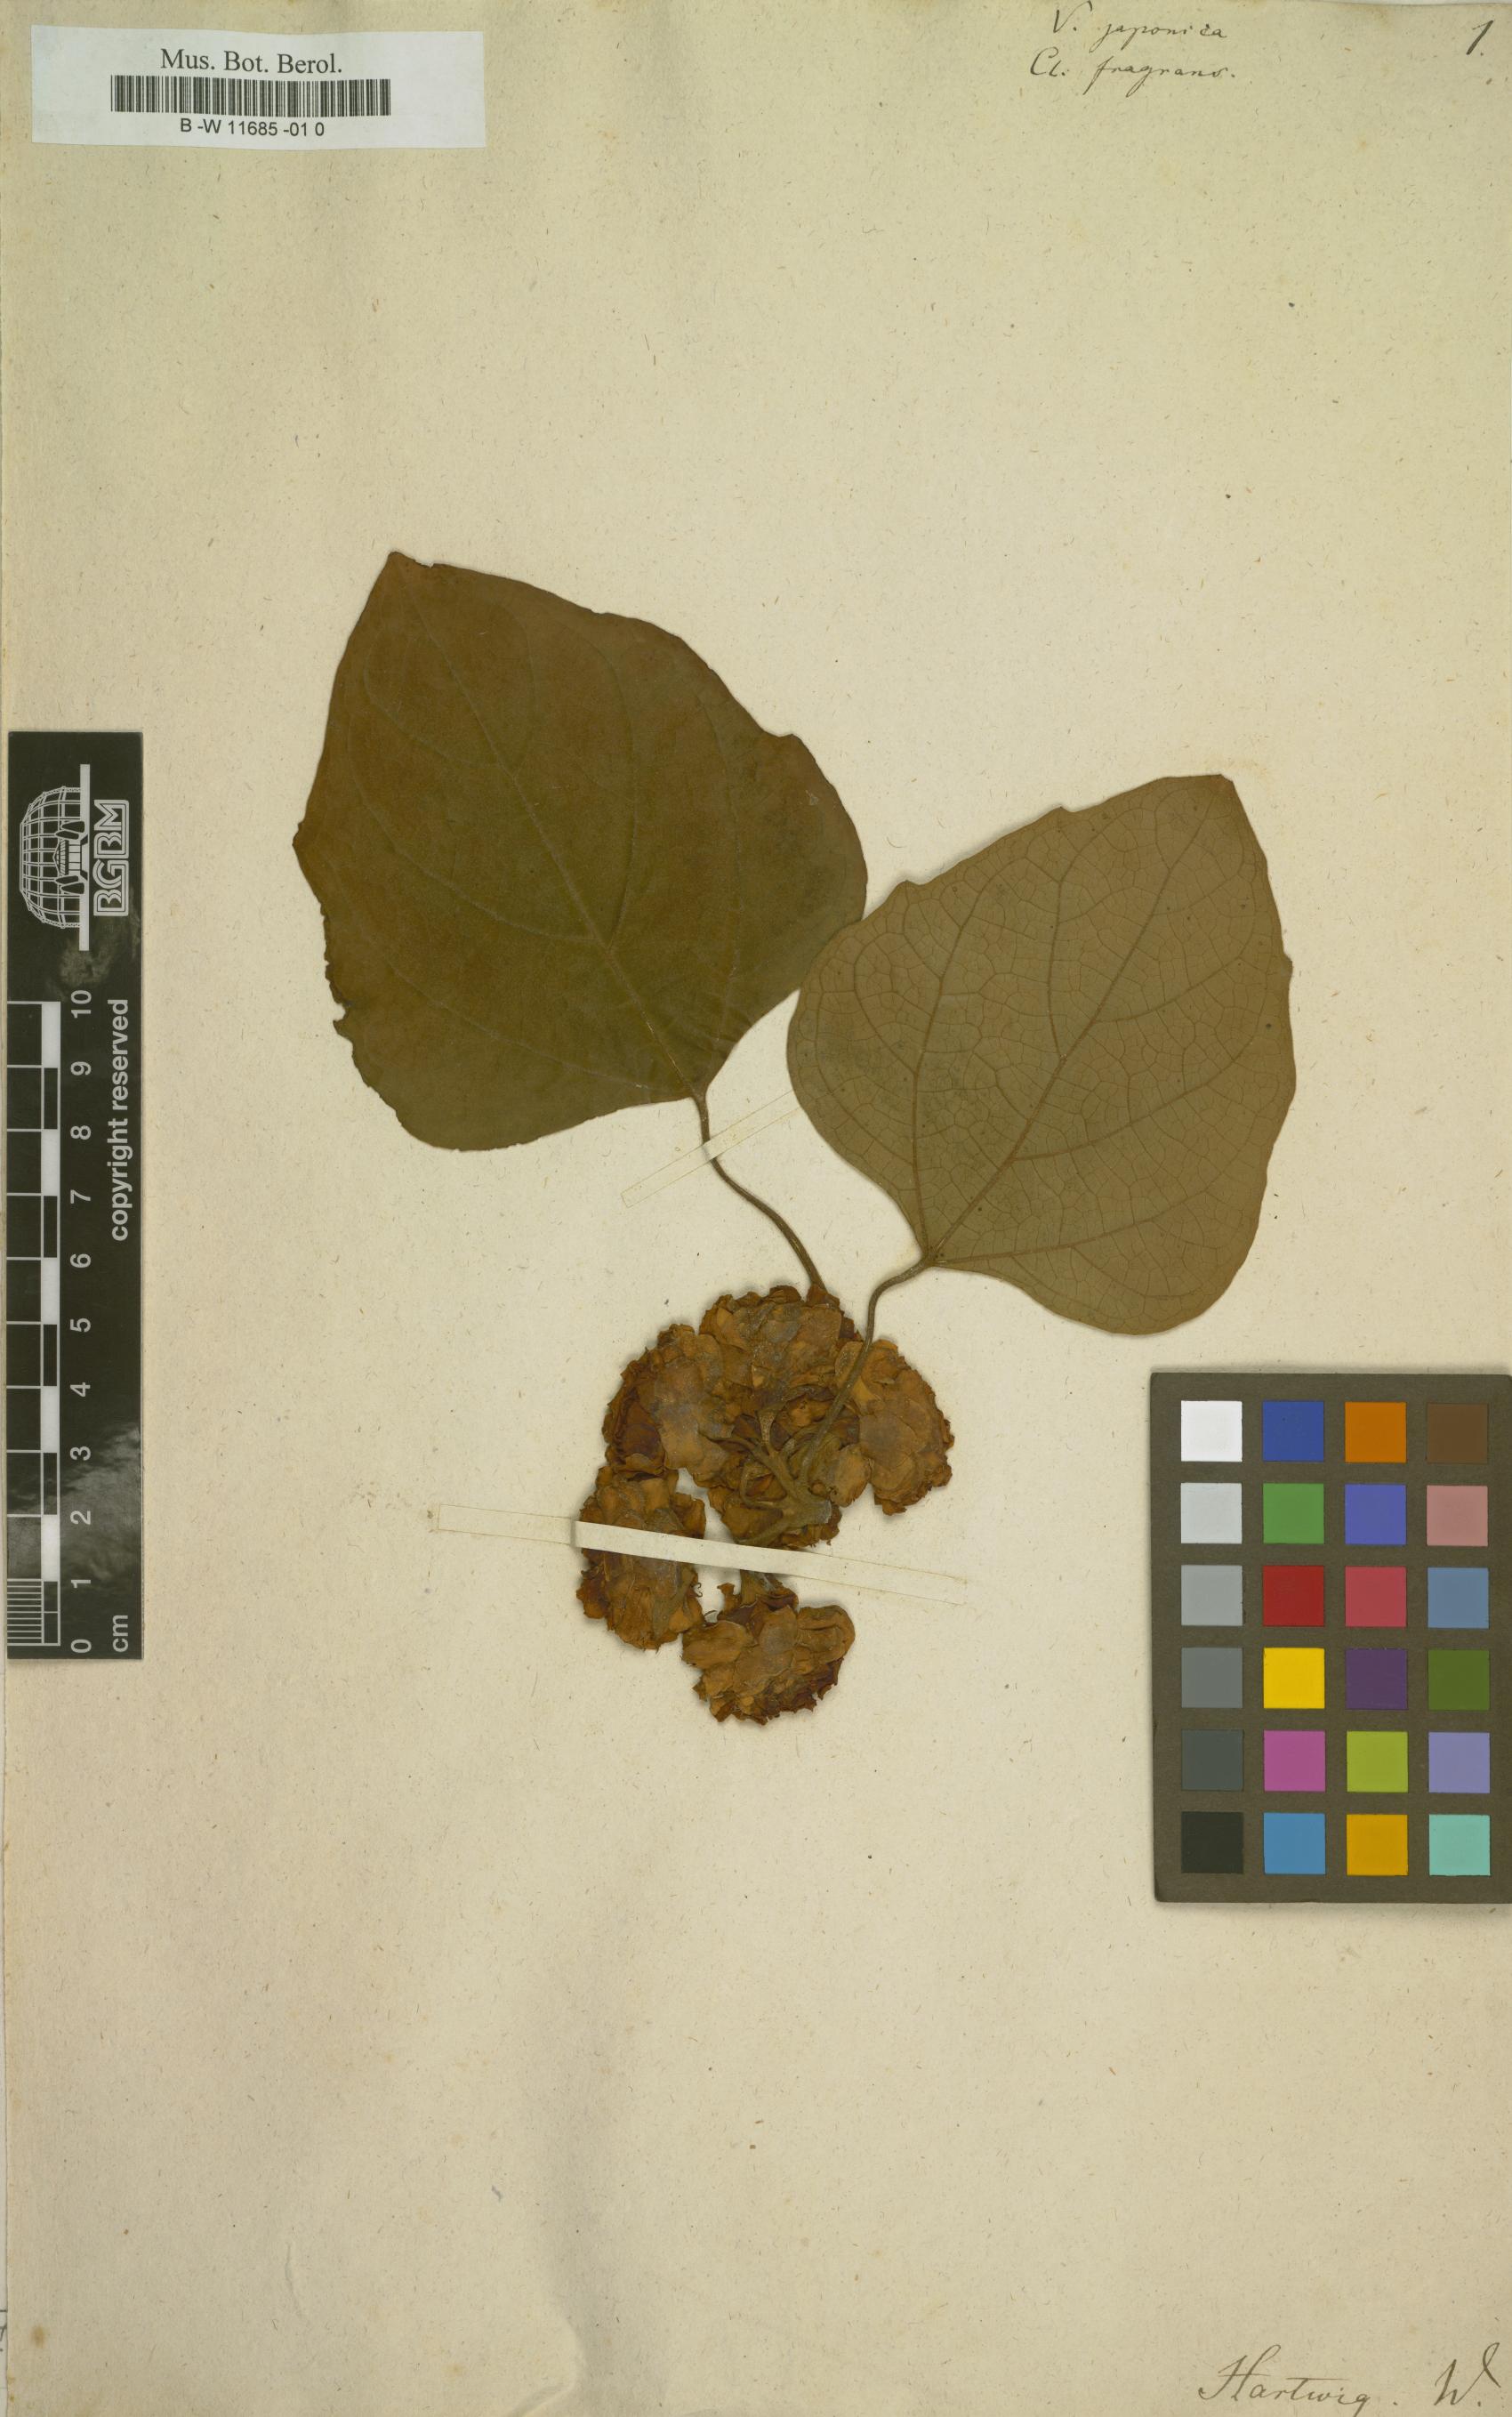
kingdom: Plantae
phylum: Tracheophyta
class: Magnoliopsida
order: Lamiales
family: Lamiaceae
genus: Clerodendrum
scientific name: Clerodendrum fragrans
